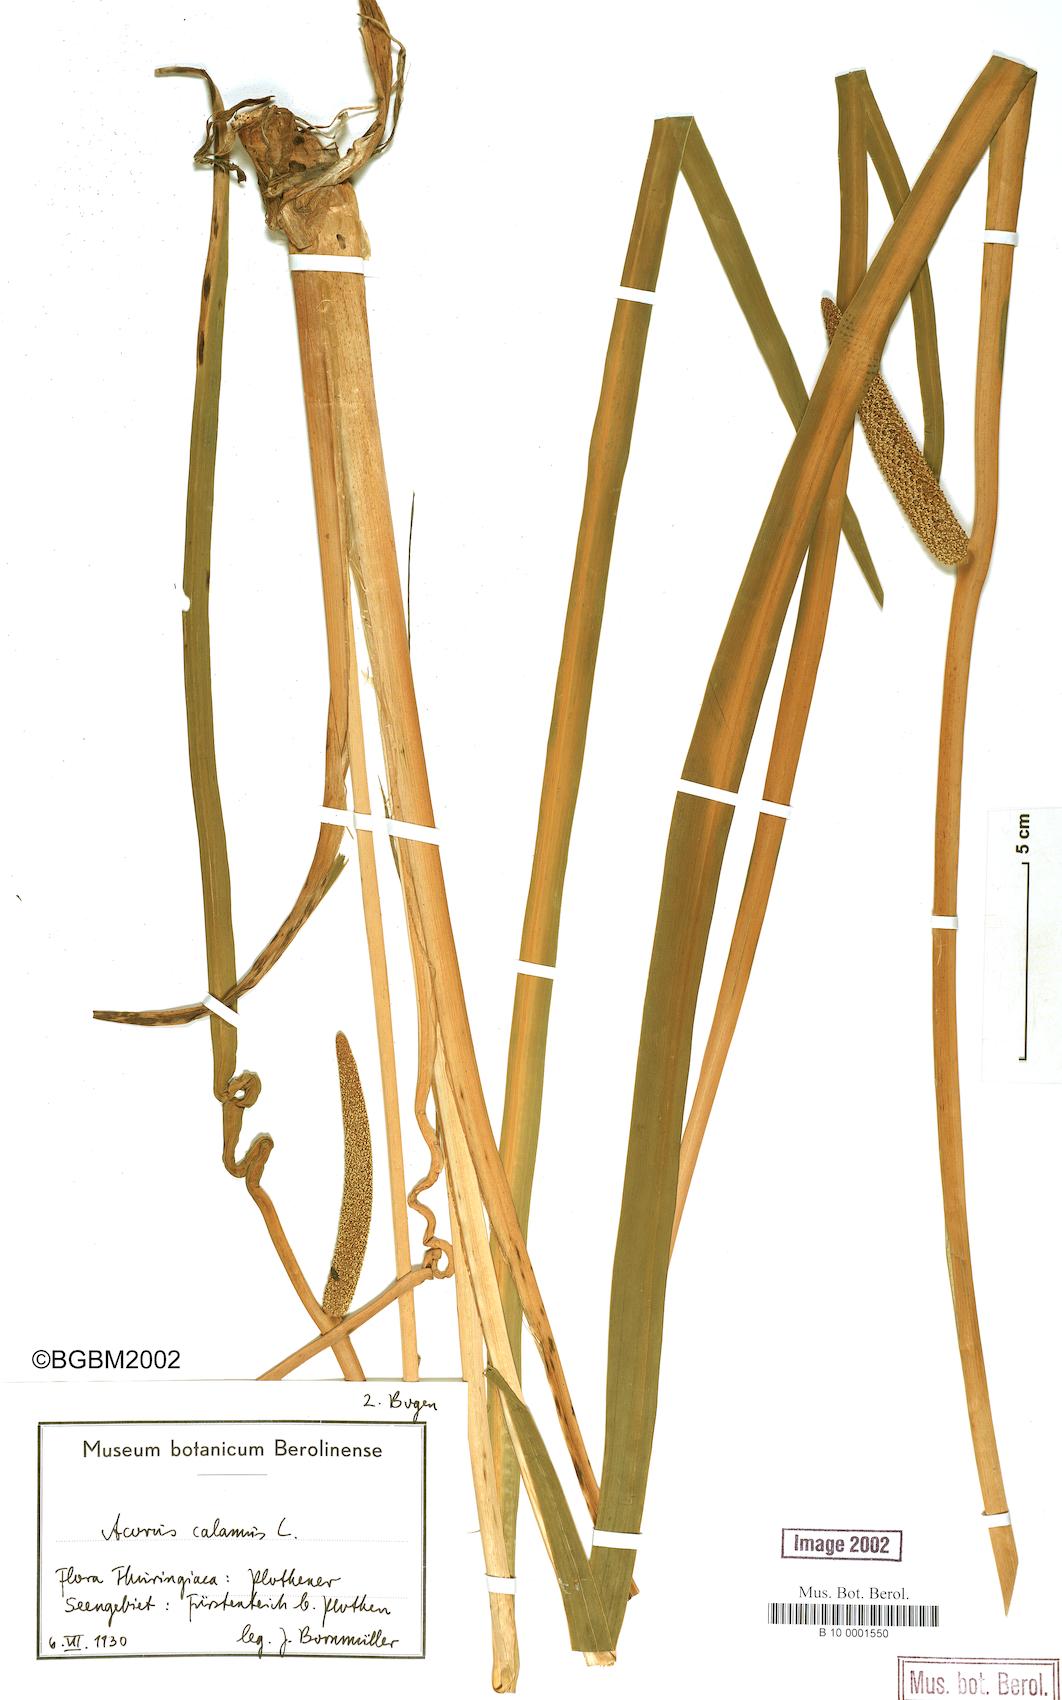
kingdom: Plantae
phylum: Tracheophyta
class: Liliopsida
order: Acorales
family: Acoraceae
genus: Acorus
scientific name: Acorus calamus
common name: Sweet-flag
